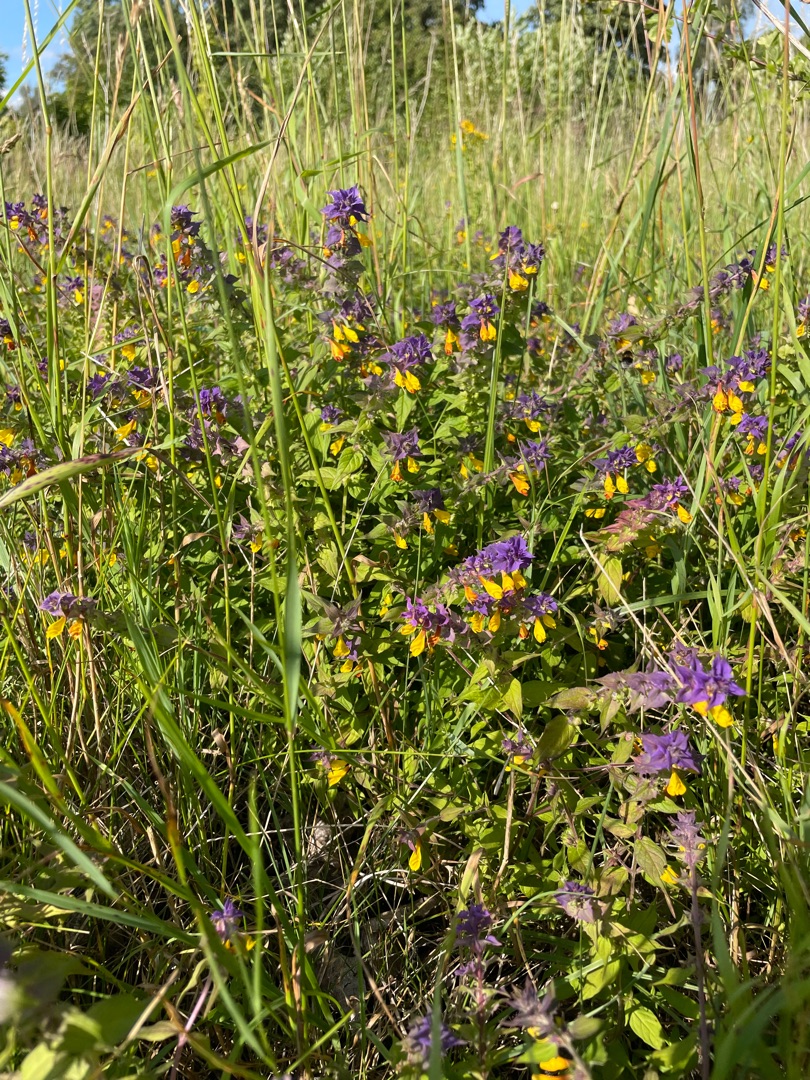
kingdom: Plantae
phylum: Tracheophyta
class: Magnoliopsida
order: Lamiales
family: Orobanchaceae
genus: Melampyrum
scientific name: Melampyrum nemorosum
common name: Blåtoppet kohvede
